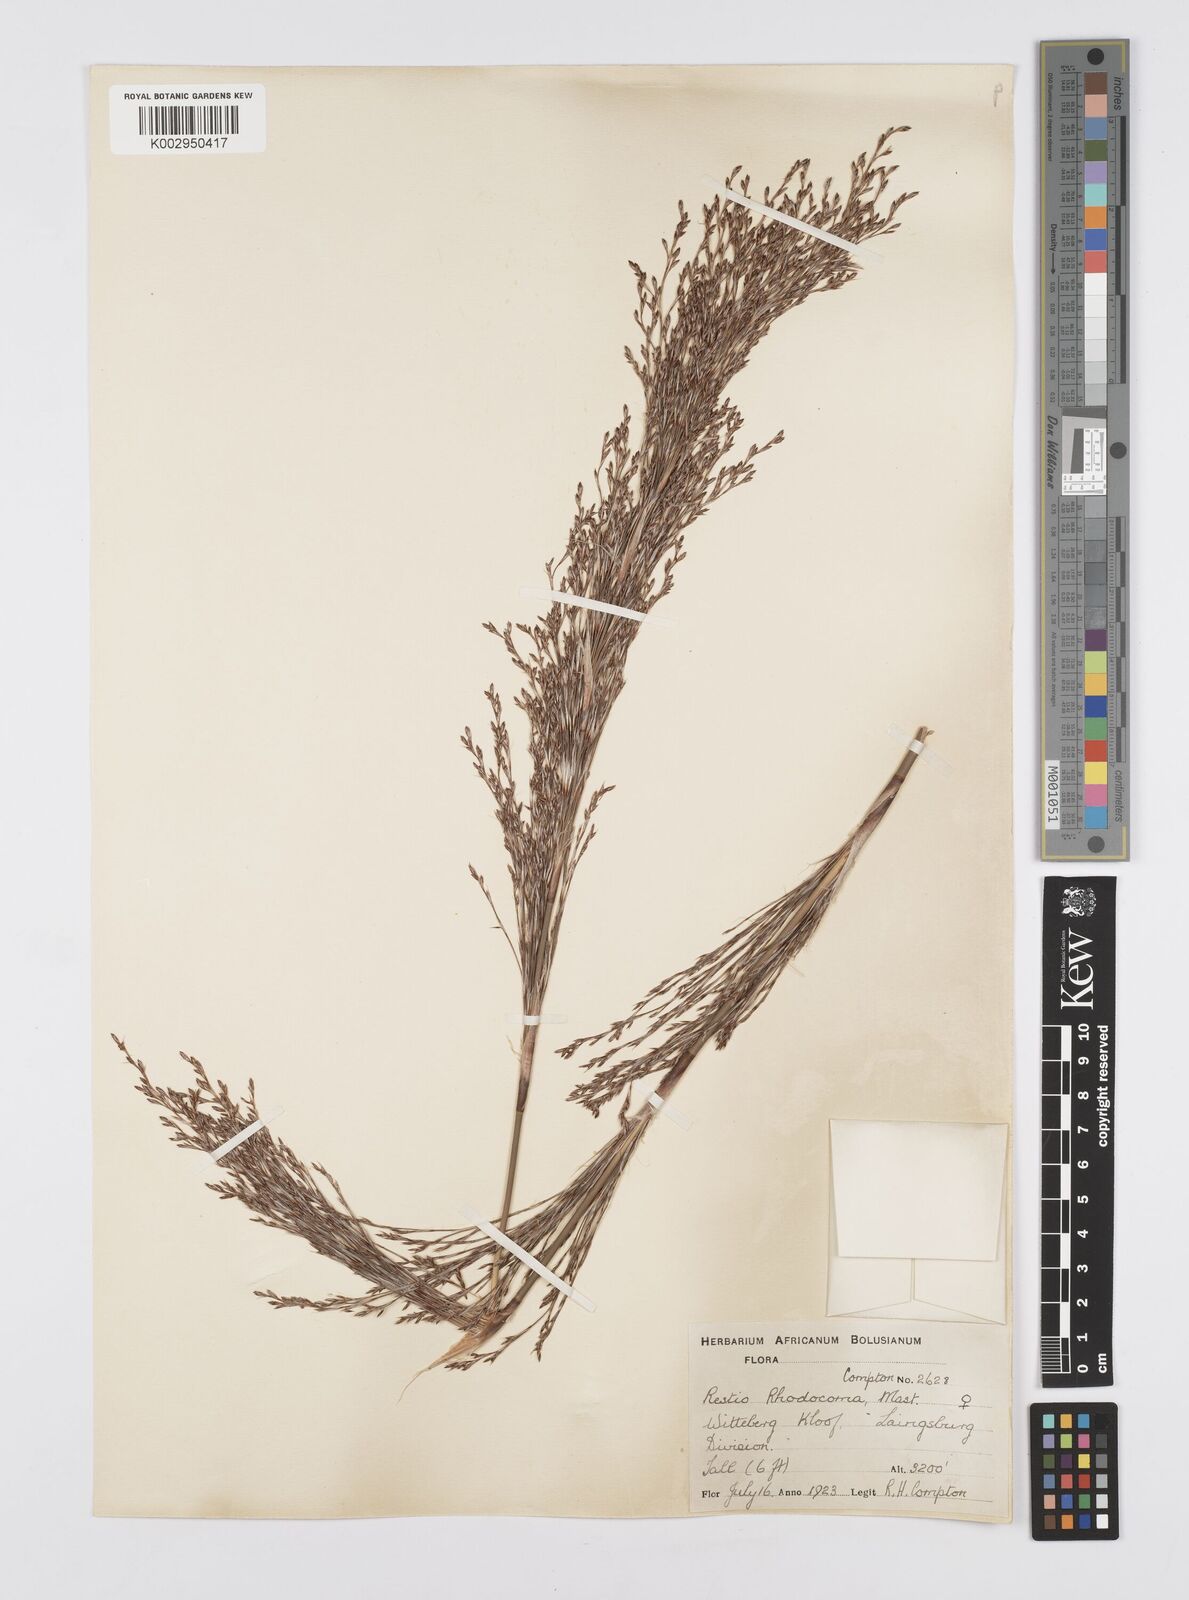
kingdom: Plantae
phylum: Tracheophyta
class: Liliopsida
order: Poales
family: Restionaceae
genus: Rhodocoma
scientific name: Rhodocoma capensis
